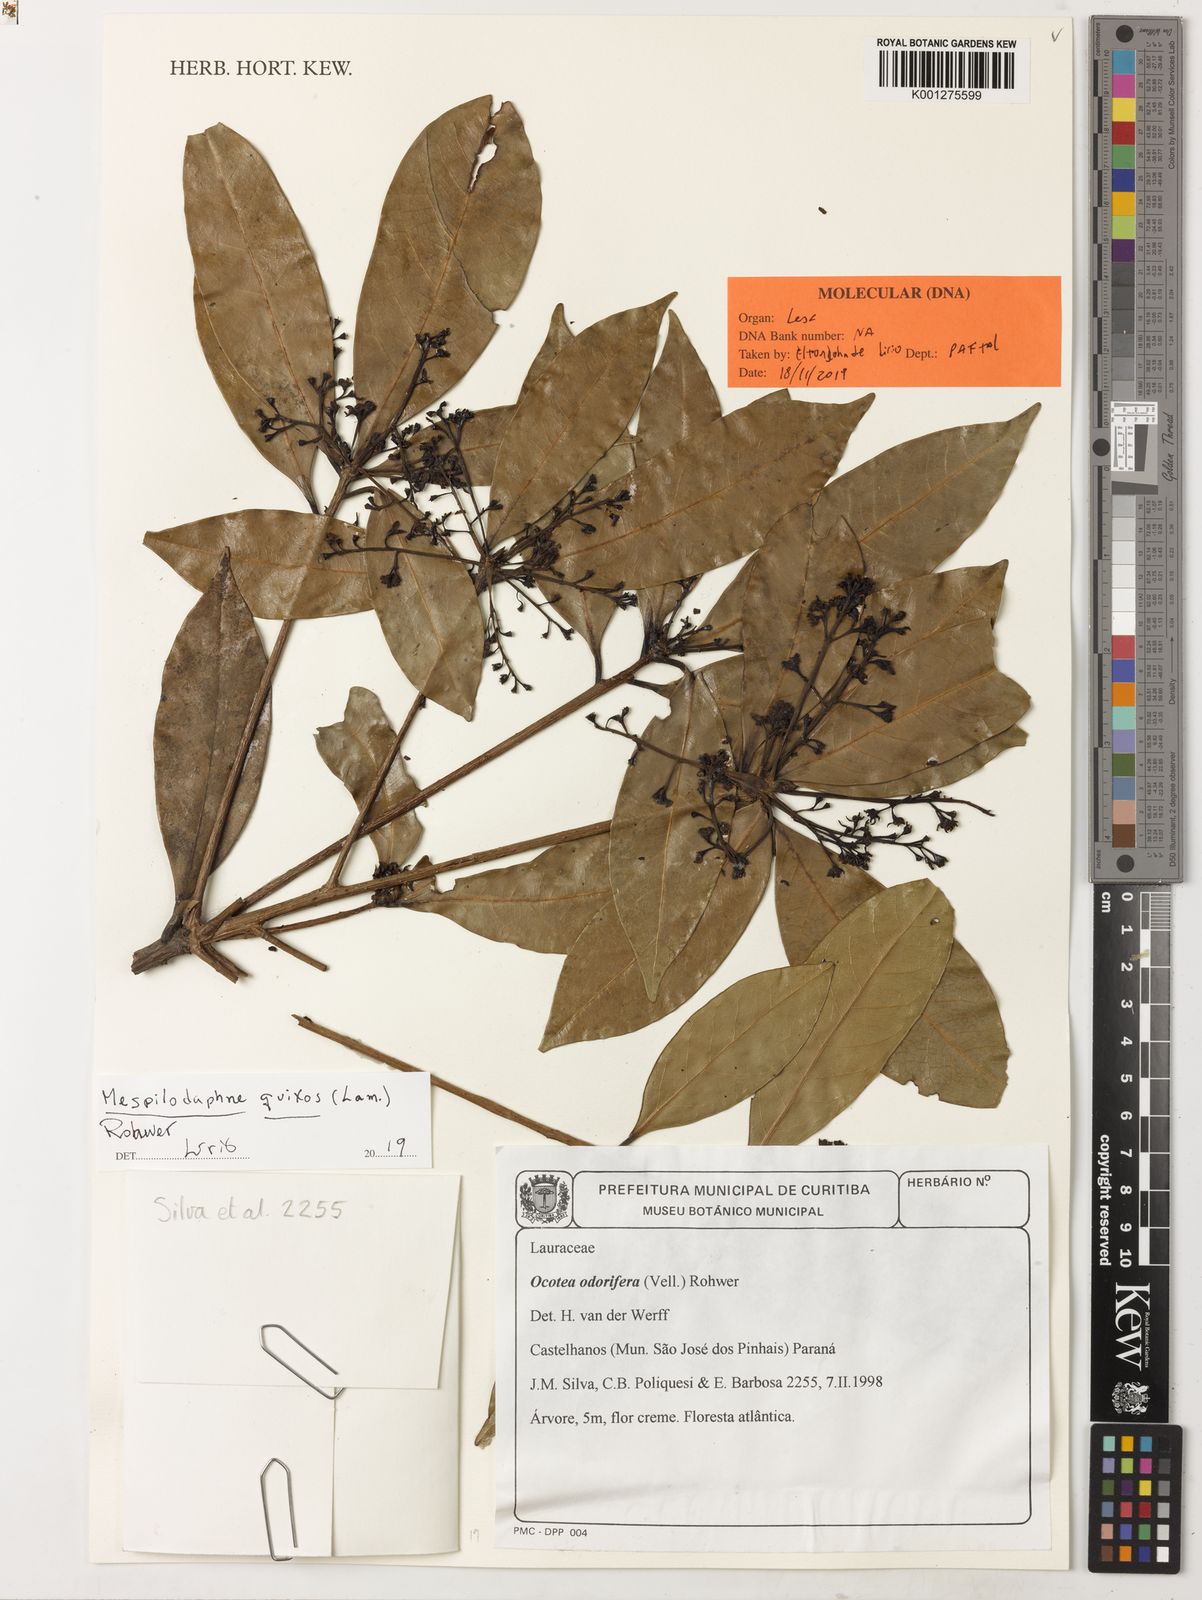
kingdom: Plantae
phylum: Tracheophyta
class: Magnoliopsida
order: Laurales
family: Lauraceae
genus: Mespilodaphne
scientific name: Mespilodaphne quixos
